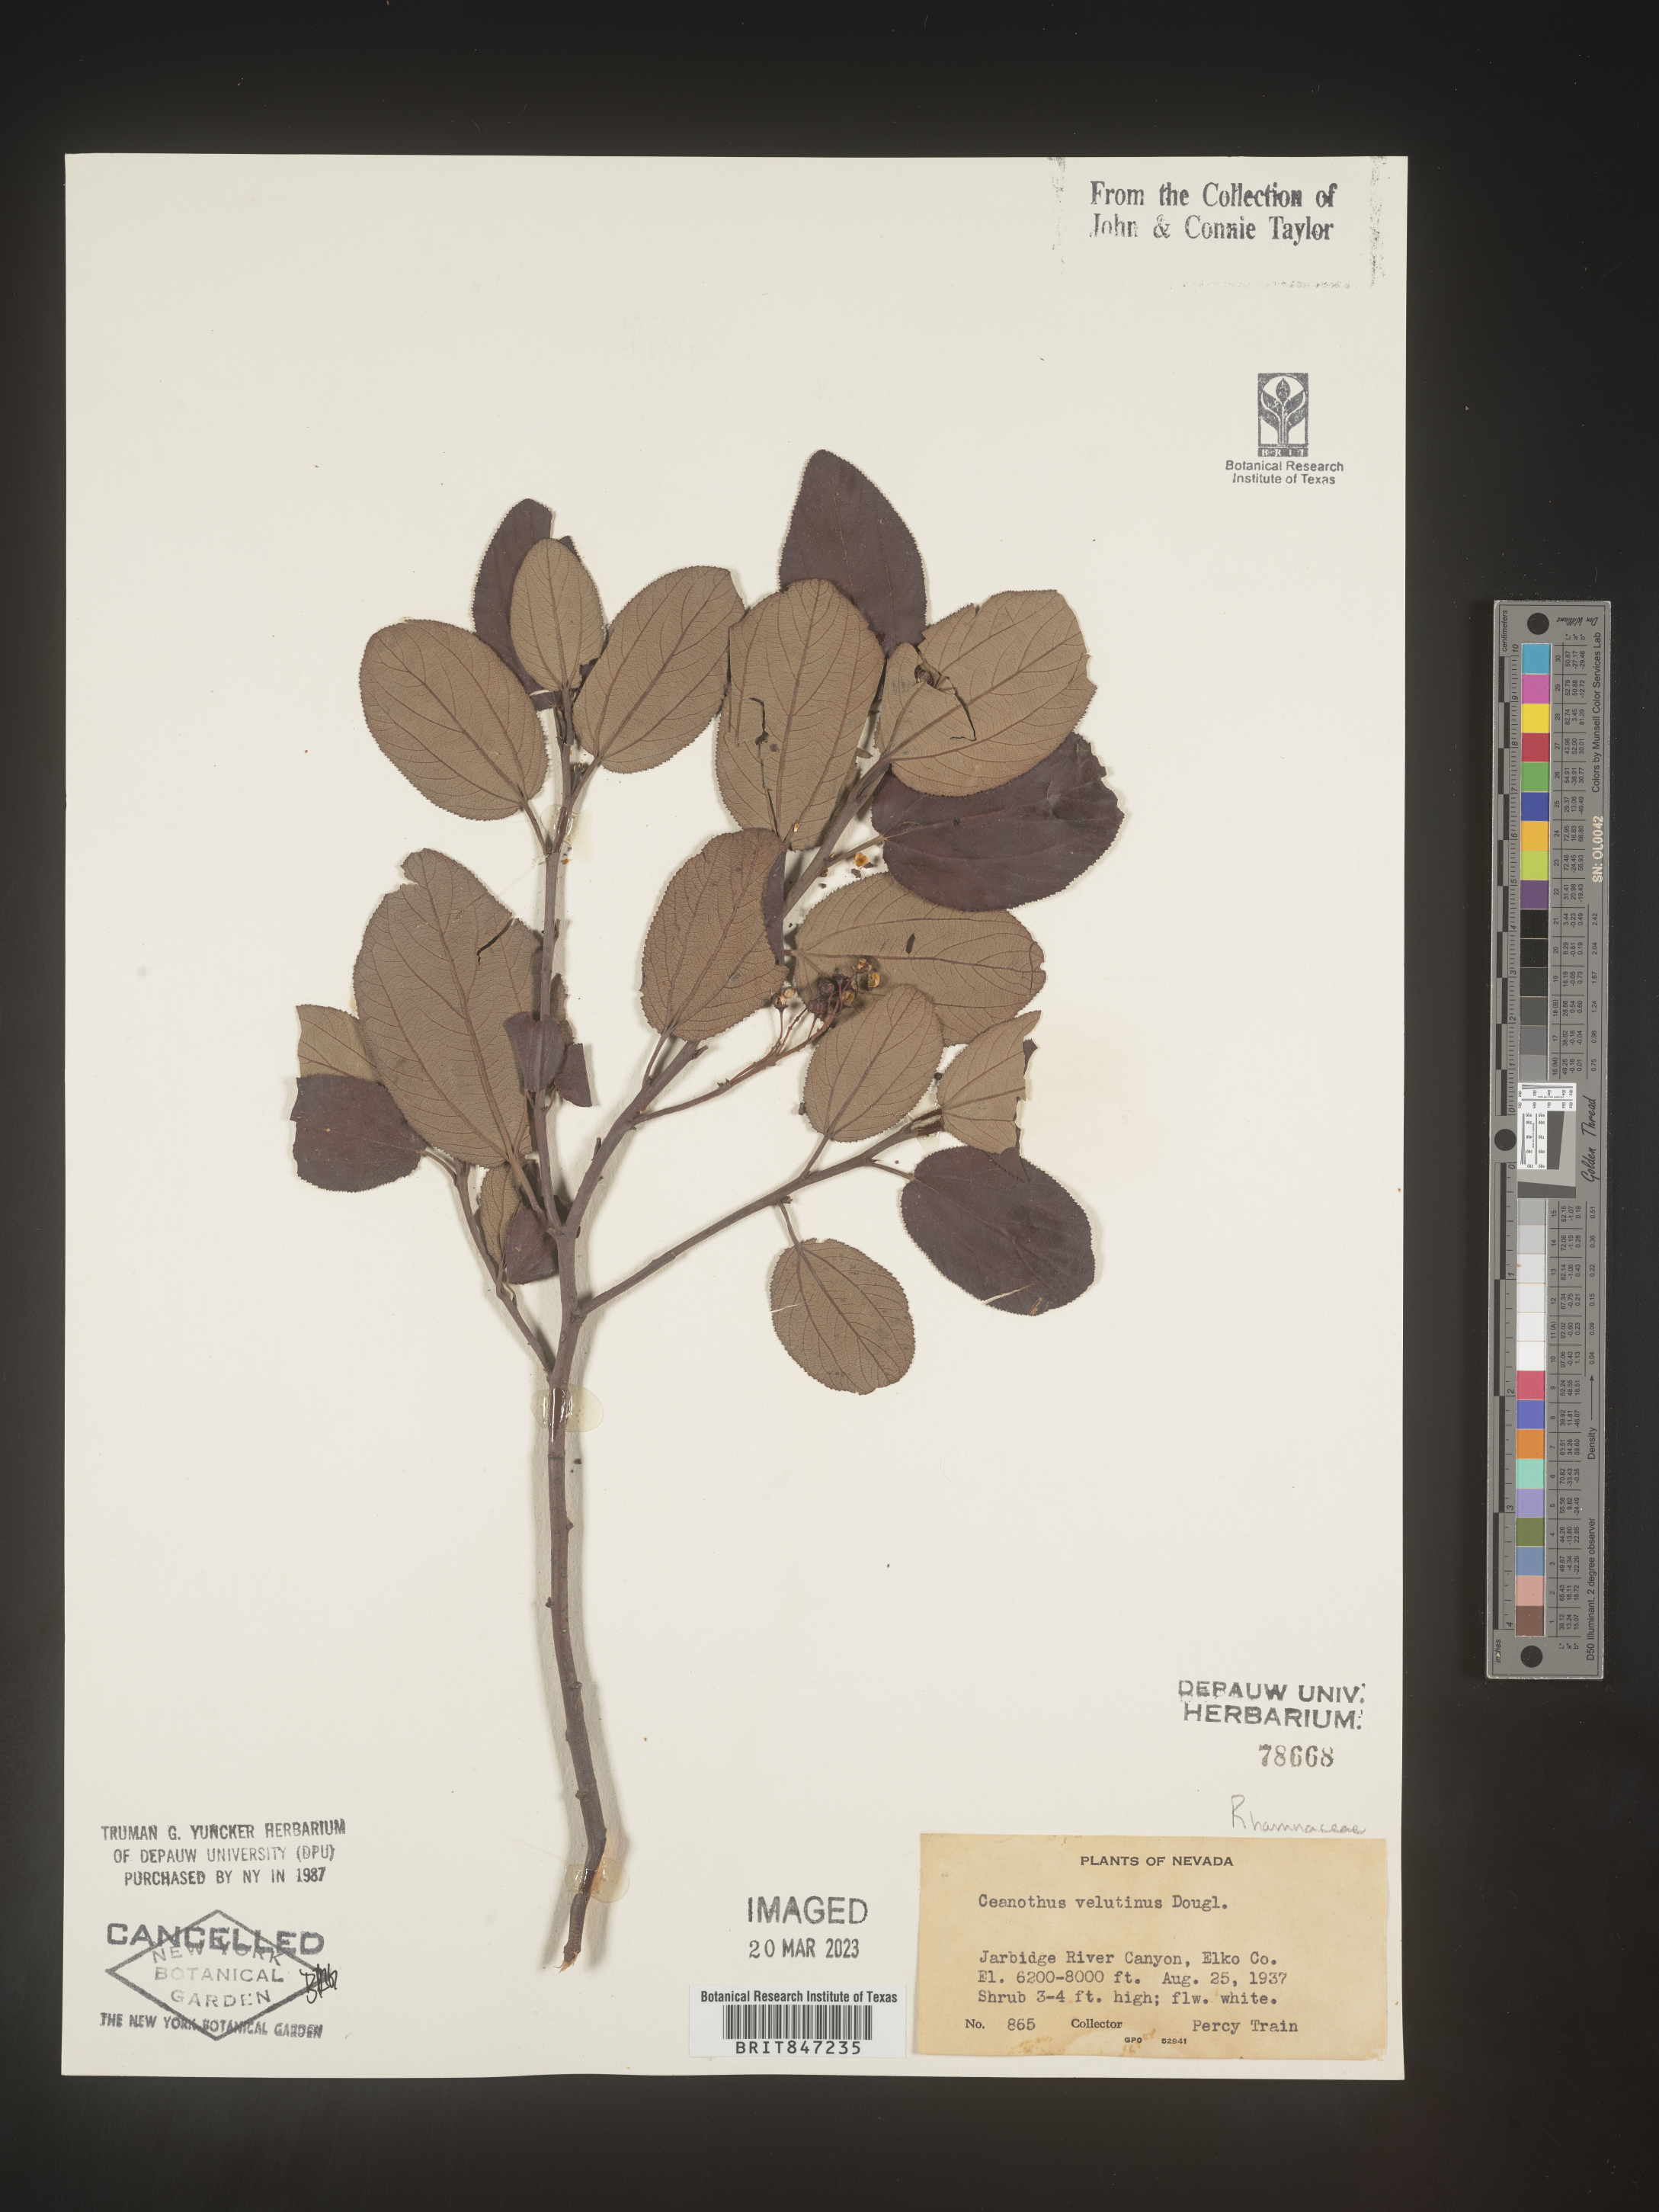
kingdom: Plantae
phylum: Tracheophyta
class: Magnoliopsida
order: Rosales
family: Rhamnaceae
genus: Ceanothus
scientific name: Ceanothus velutinus
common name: Snowbrush
